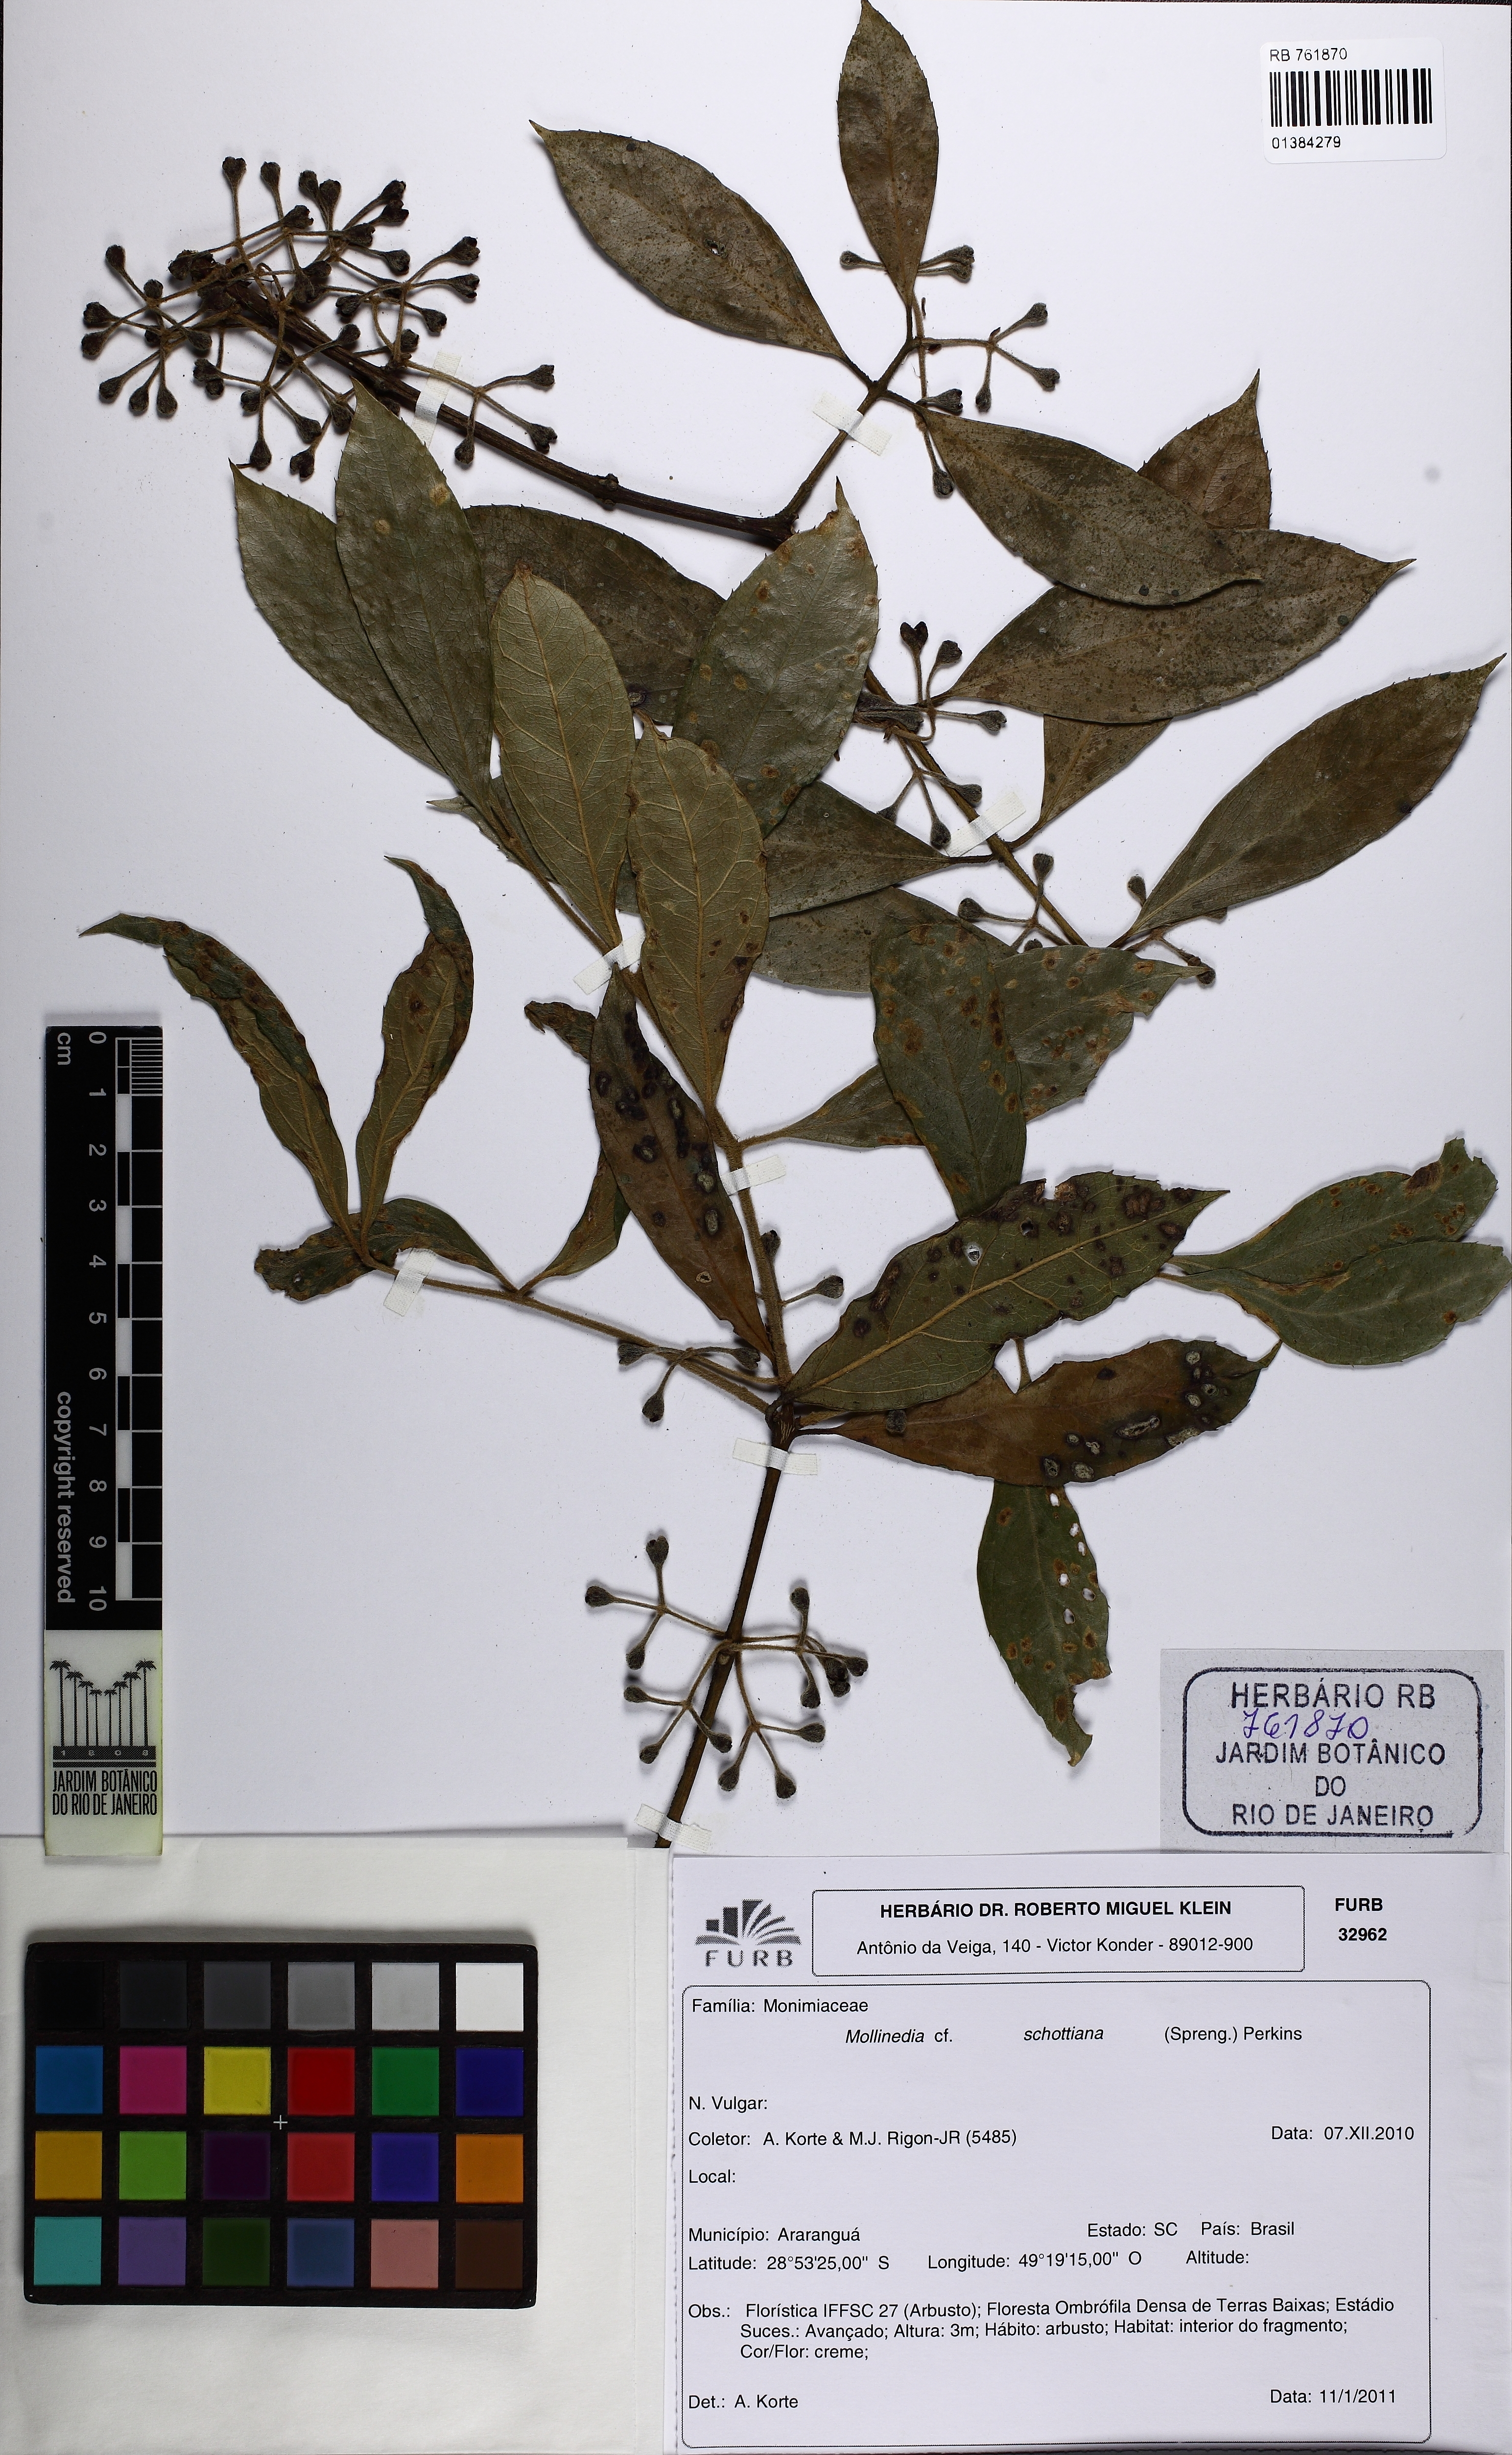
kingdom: Plantae
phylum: Tracheophyta
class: Magnoliopsida
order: Laurales
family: Monimiaceae
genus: Mollinedia
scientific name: Mollinedia umbellata
